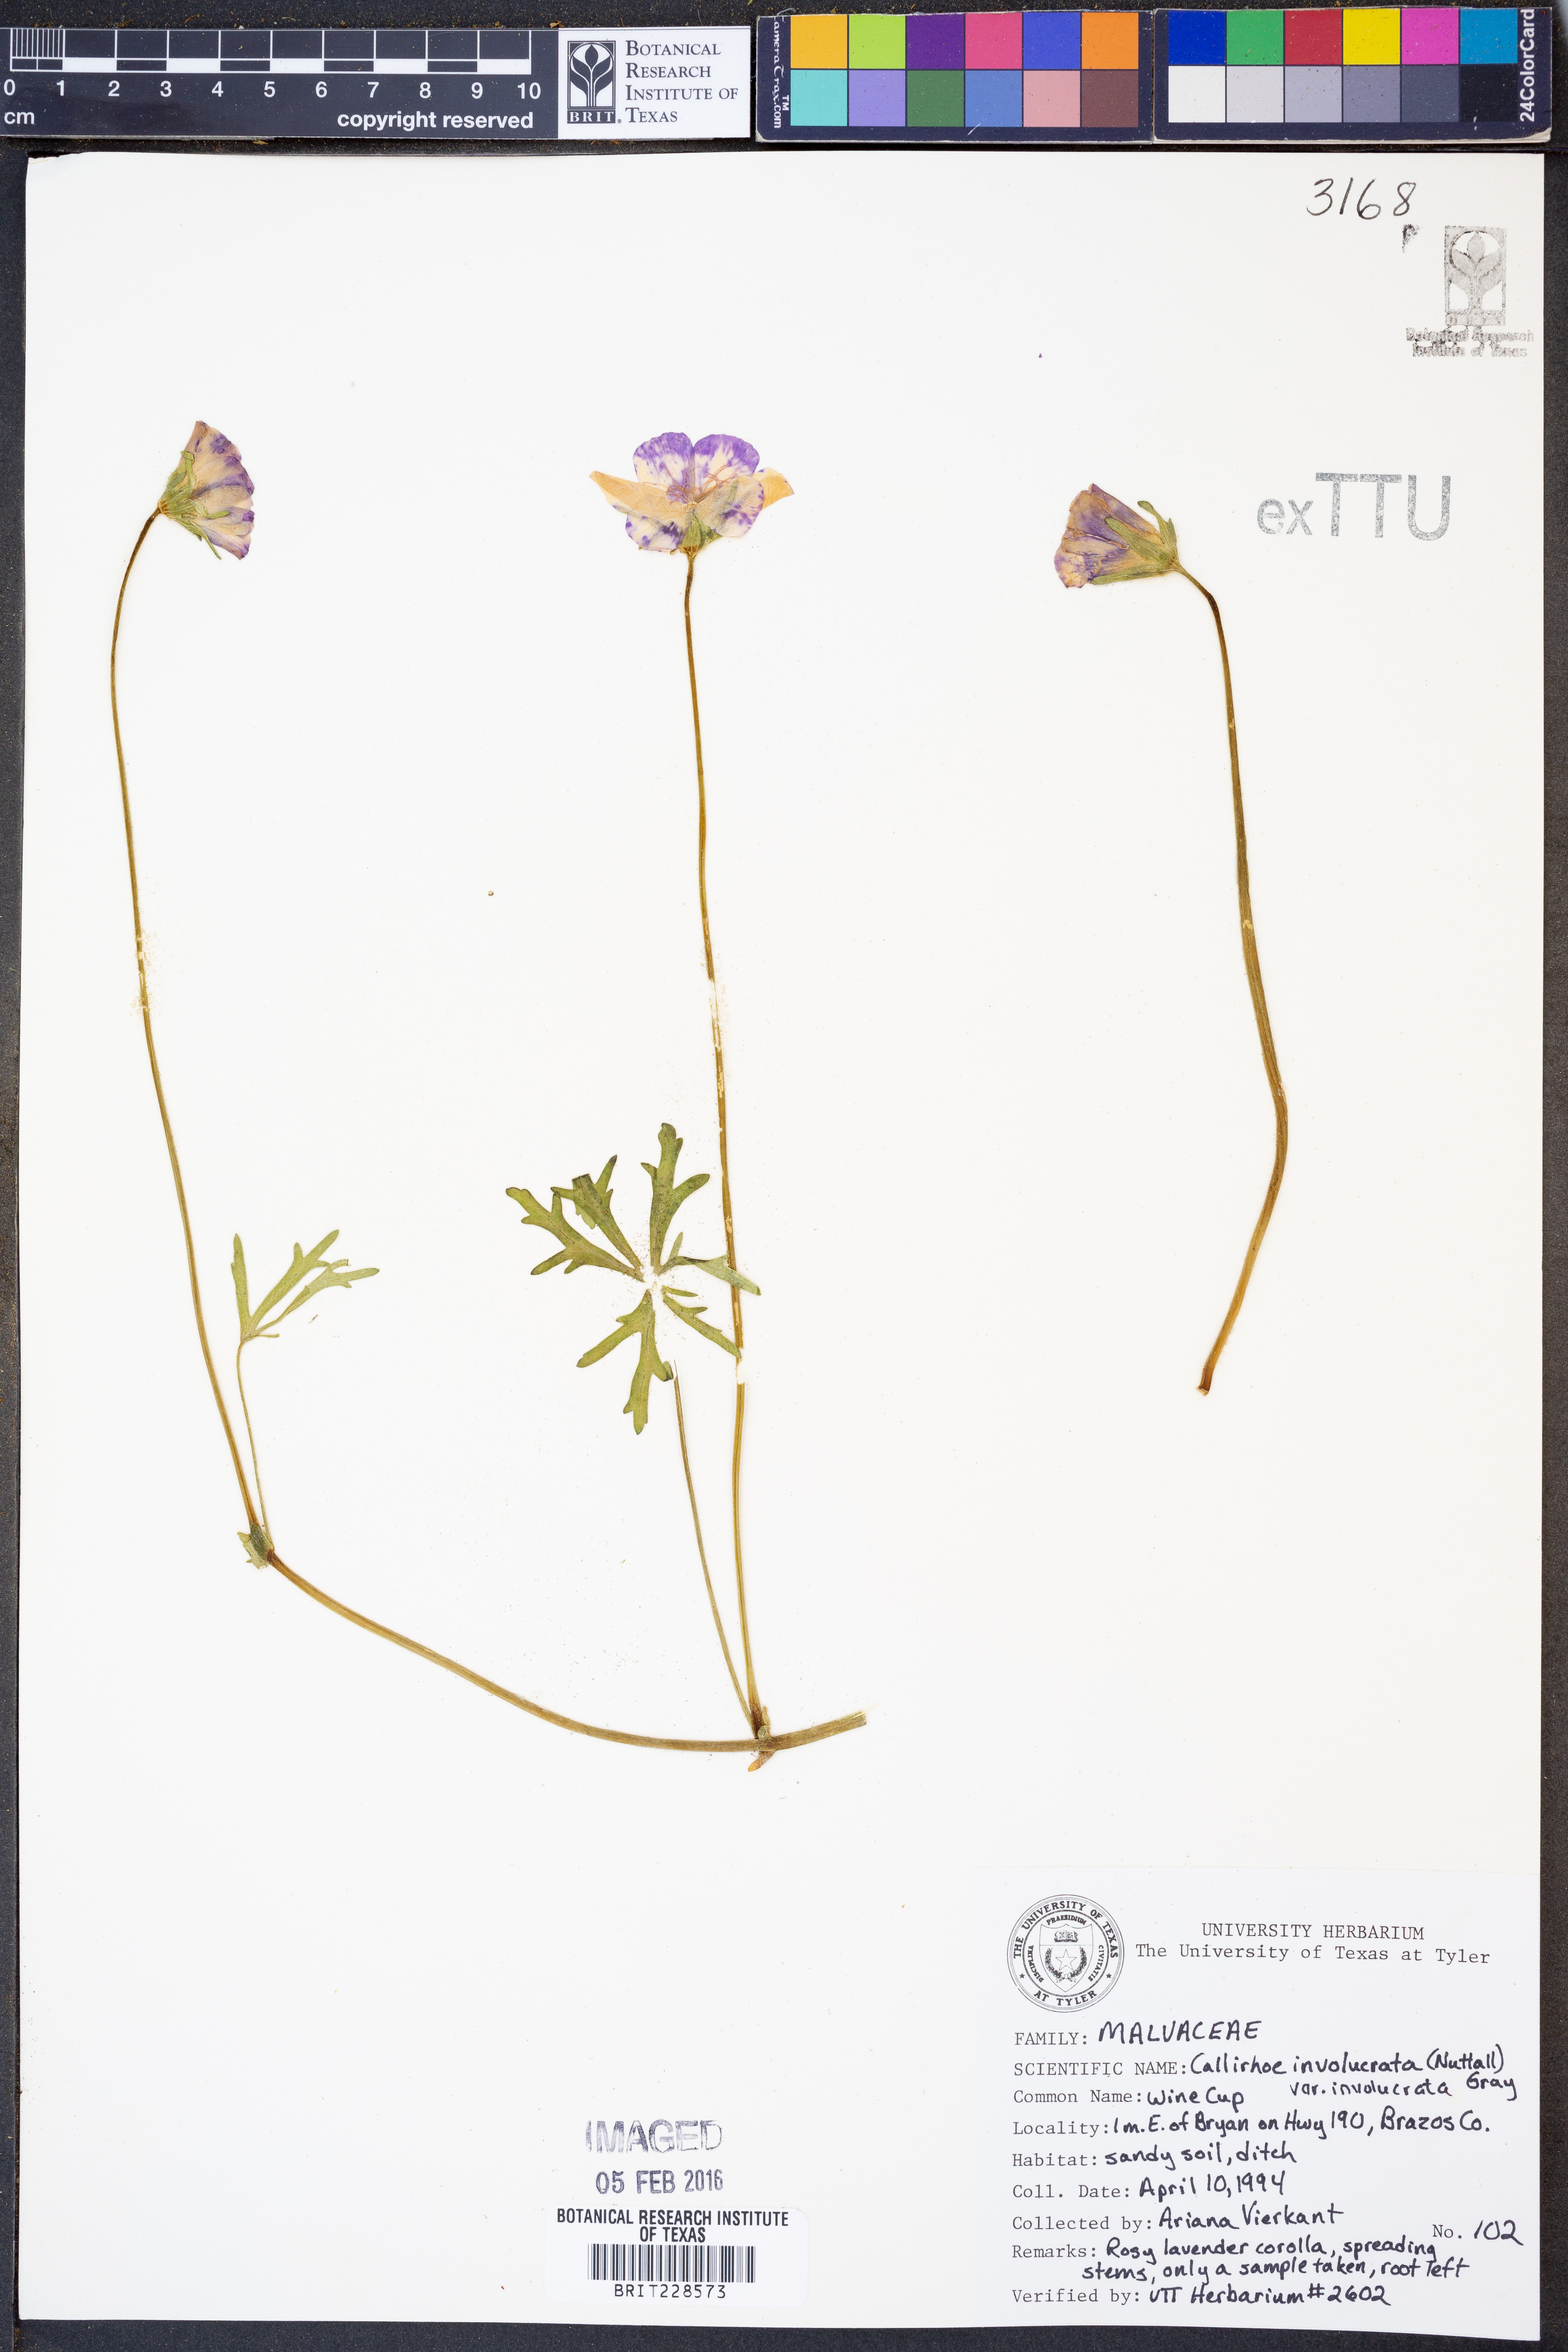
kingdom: Plantae
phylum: Tracheophyta
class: Magnoliopsida
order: Malvales
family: Malvaceae
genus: Callirhoe
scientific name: Callirhoe involucrata
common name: Purple poppy-mallow
